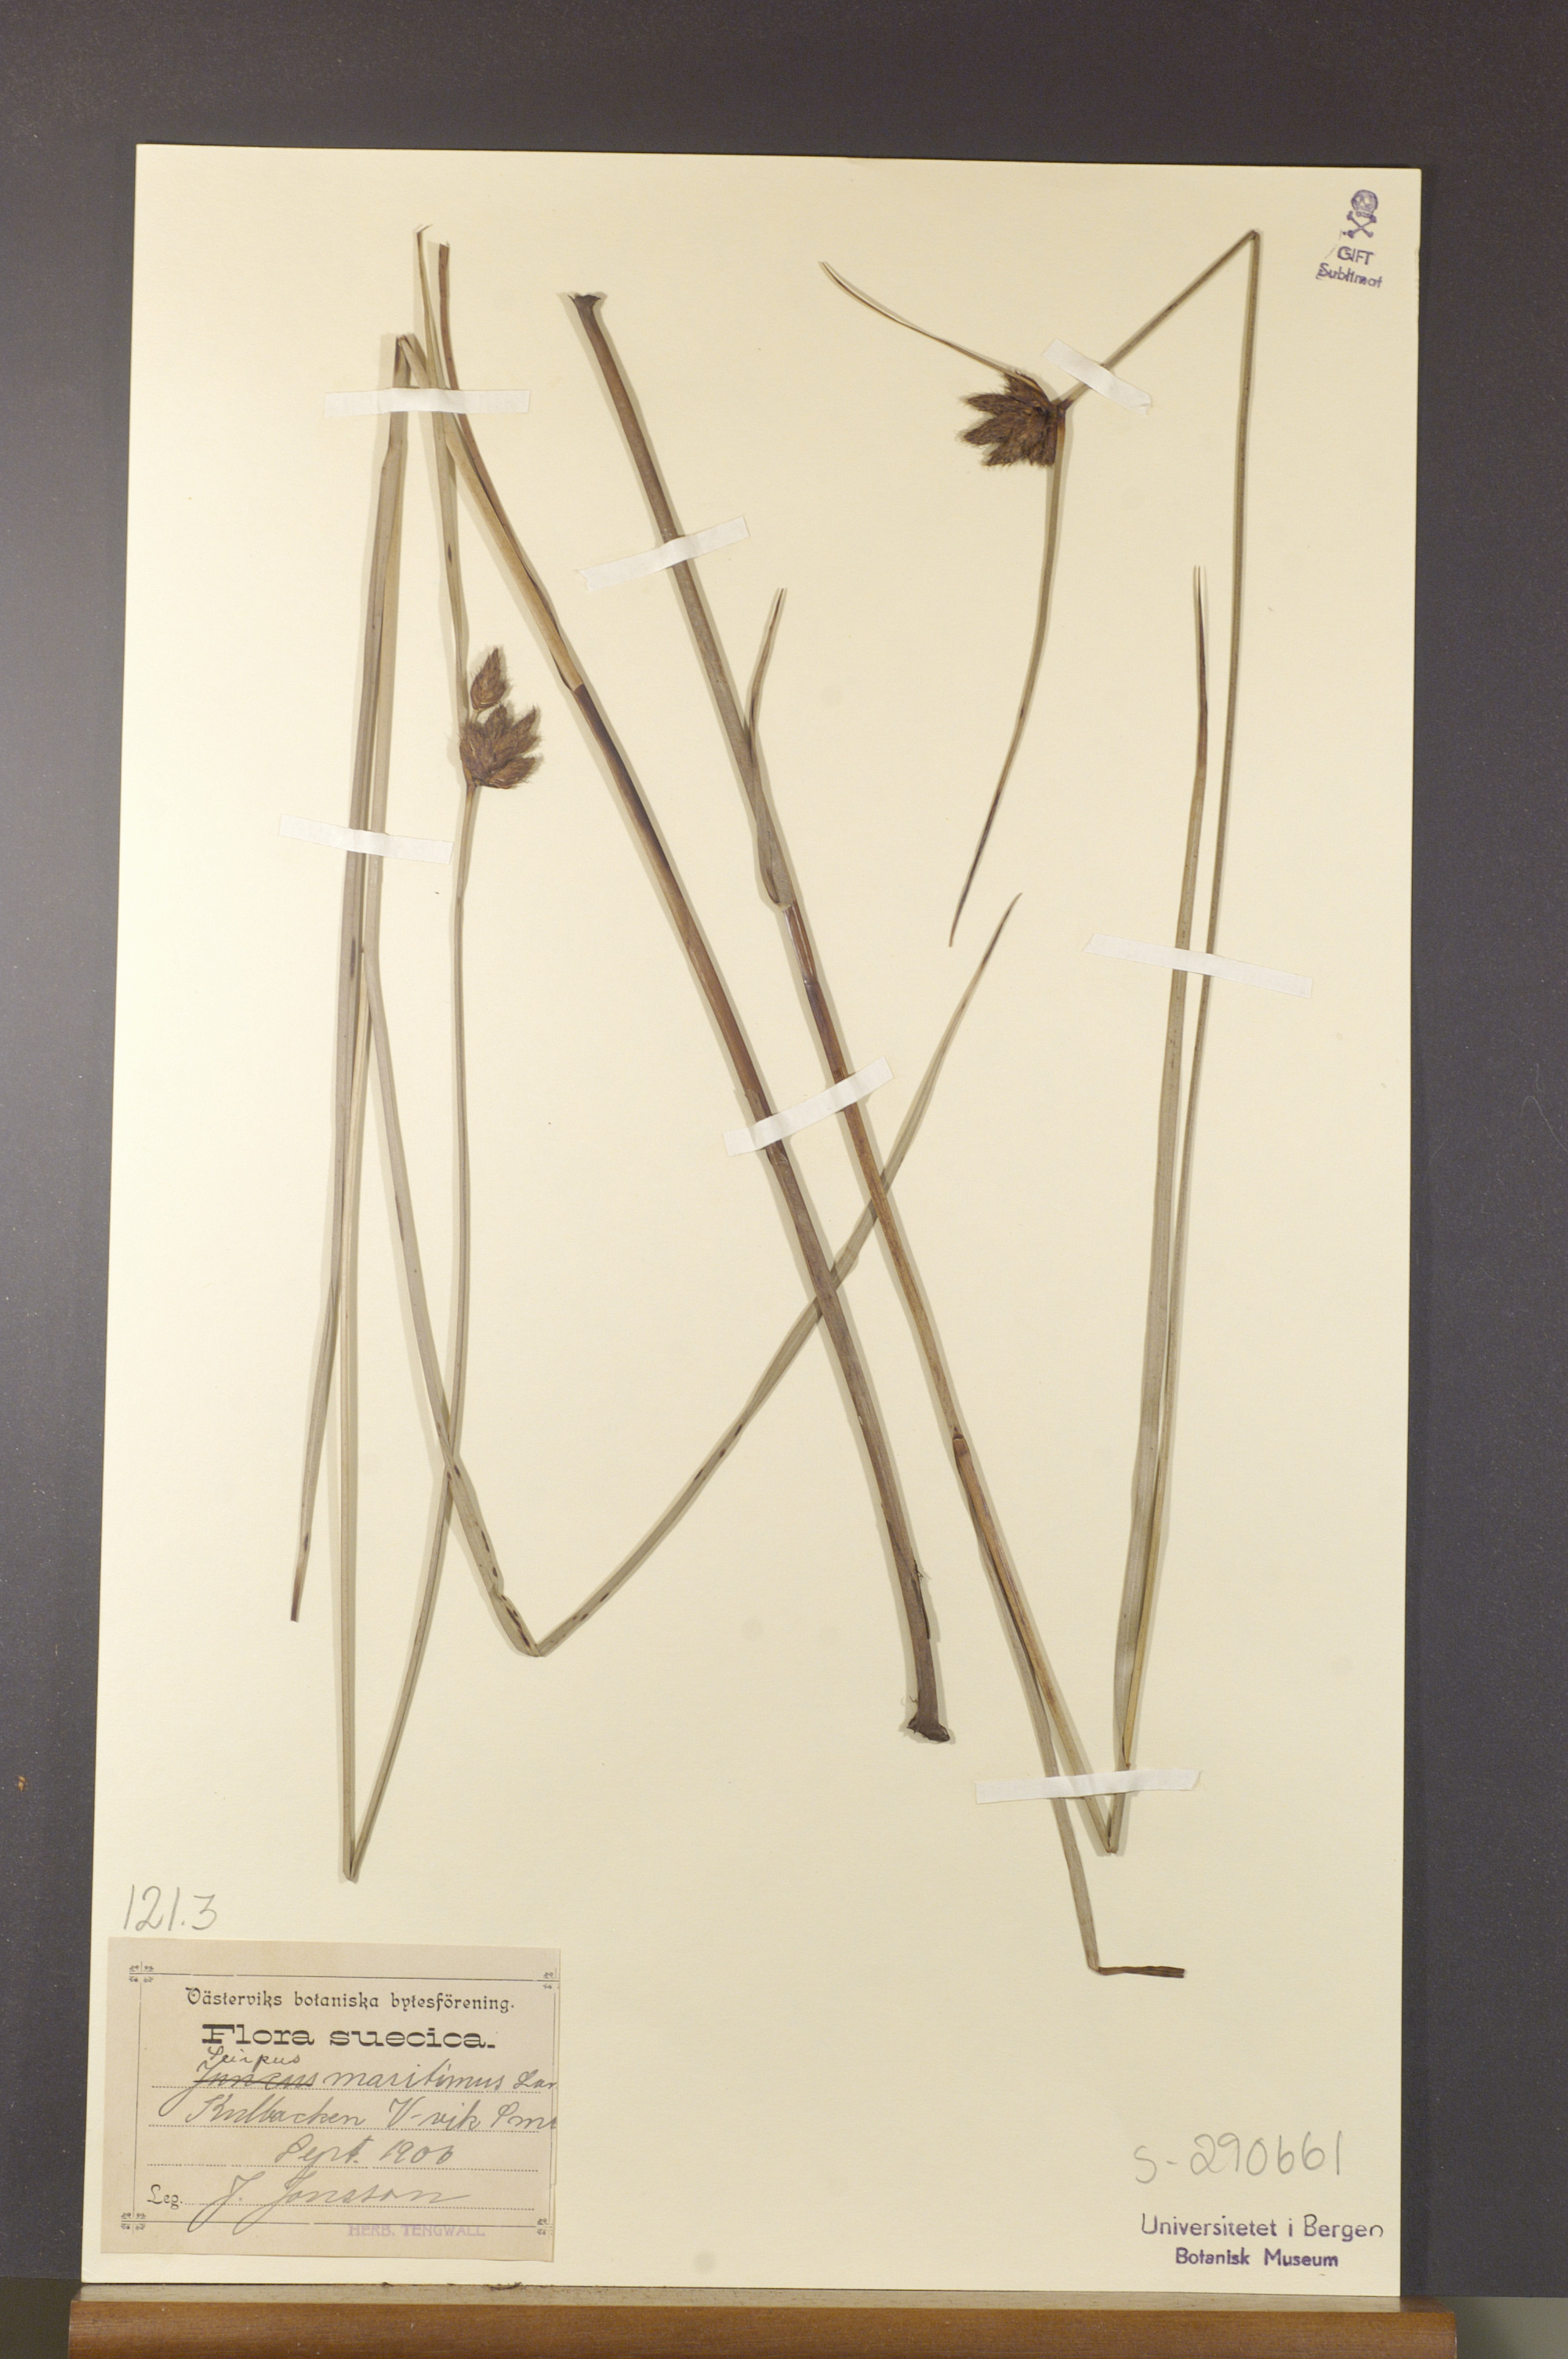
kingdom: Plantae
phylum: Tracheophyta
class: Liliopsida
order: Poales
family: Cyperaceae
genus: Bolboschoenus
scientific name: Bolboschoenus maritimus
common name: Sea club-rush
